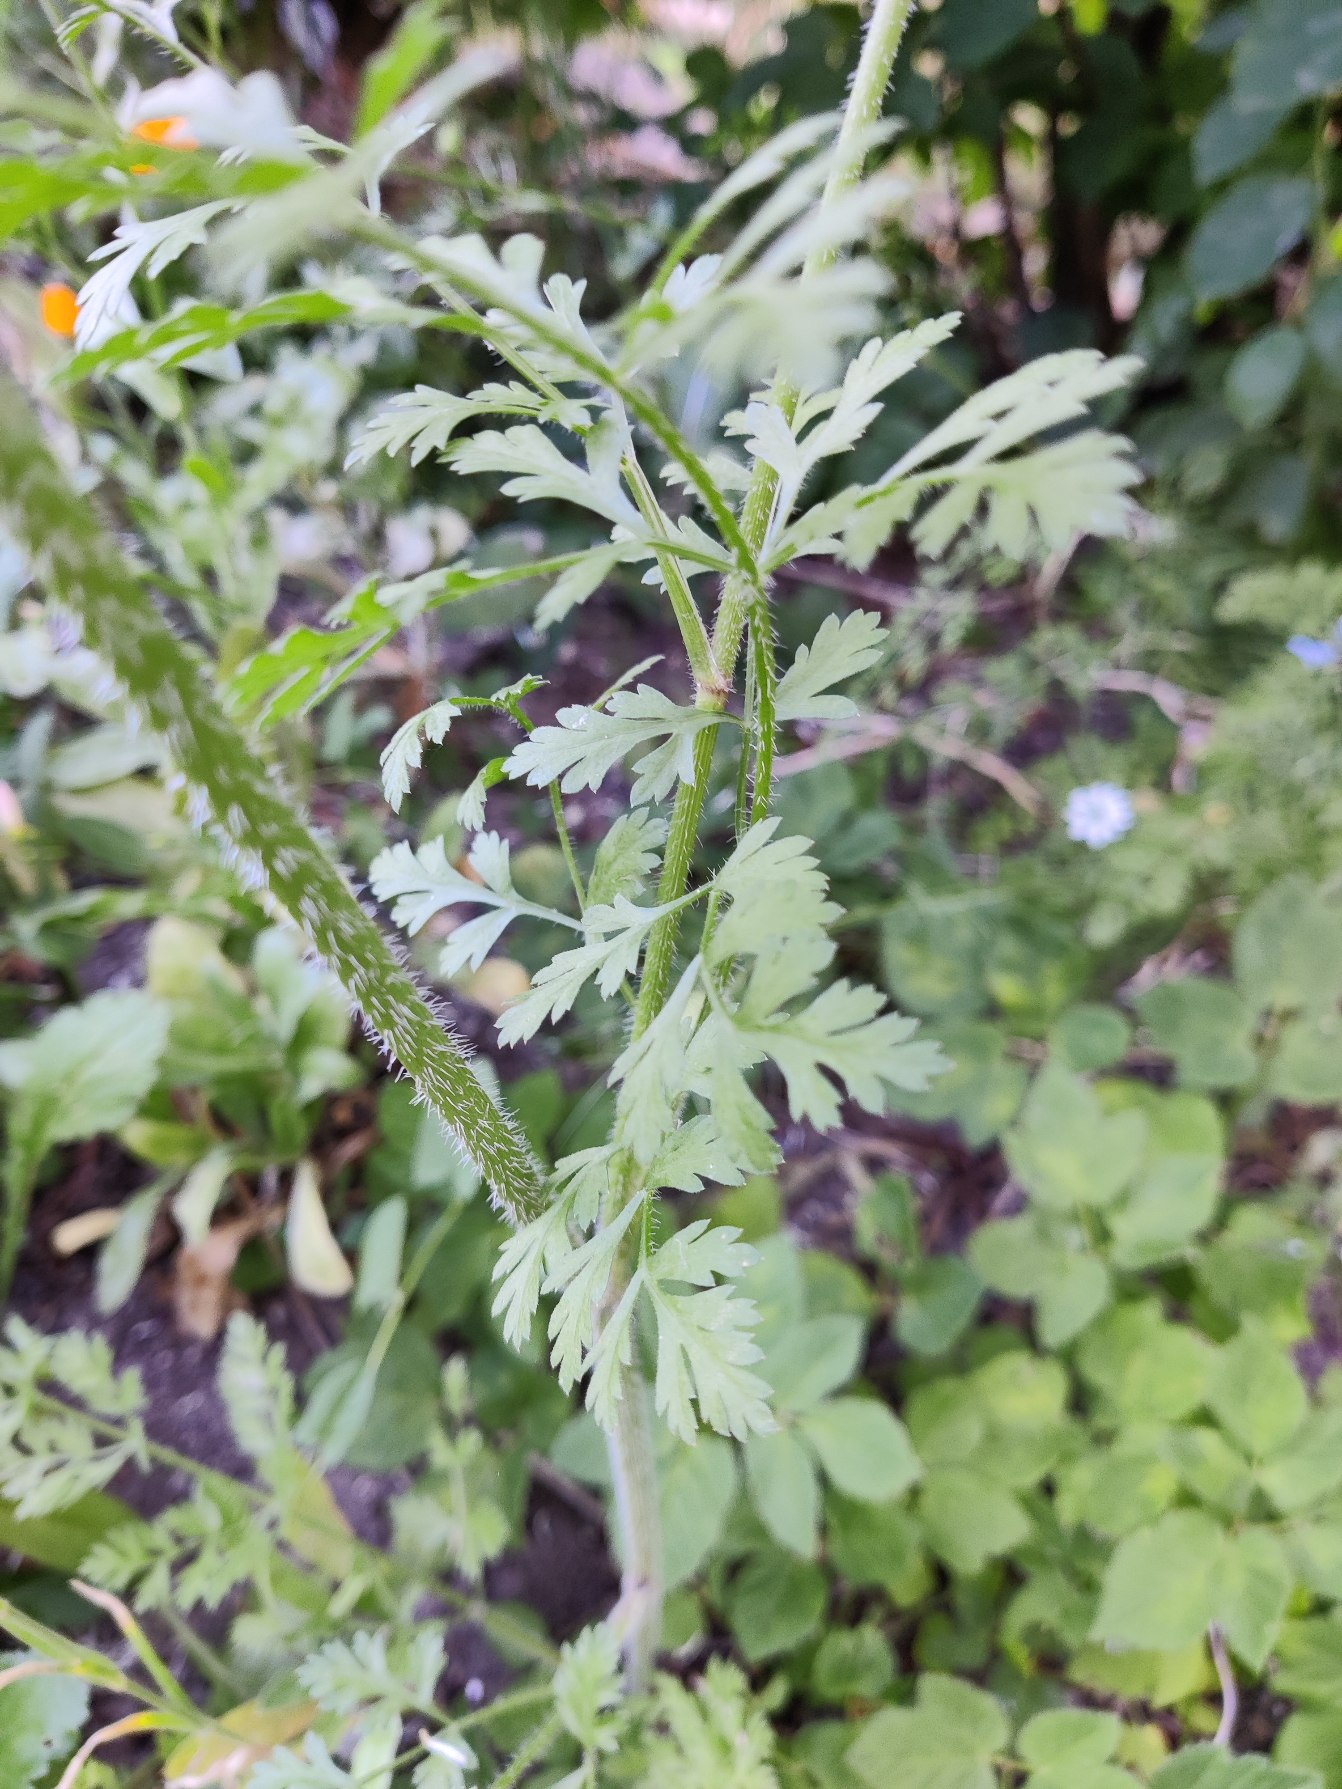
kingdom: Plantae
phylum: Tracheophyta
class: Magnoliopsida
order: Apiales
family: Apiaceae
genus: Daucus
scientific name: Daucus carota
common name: Gulerod
